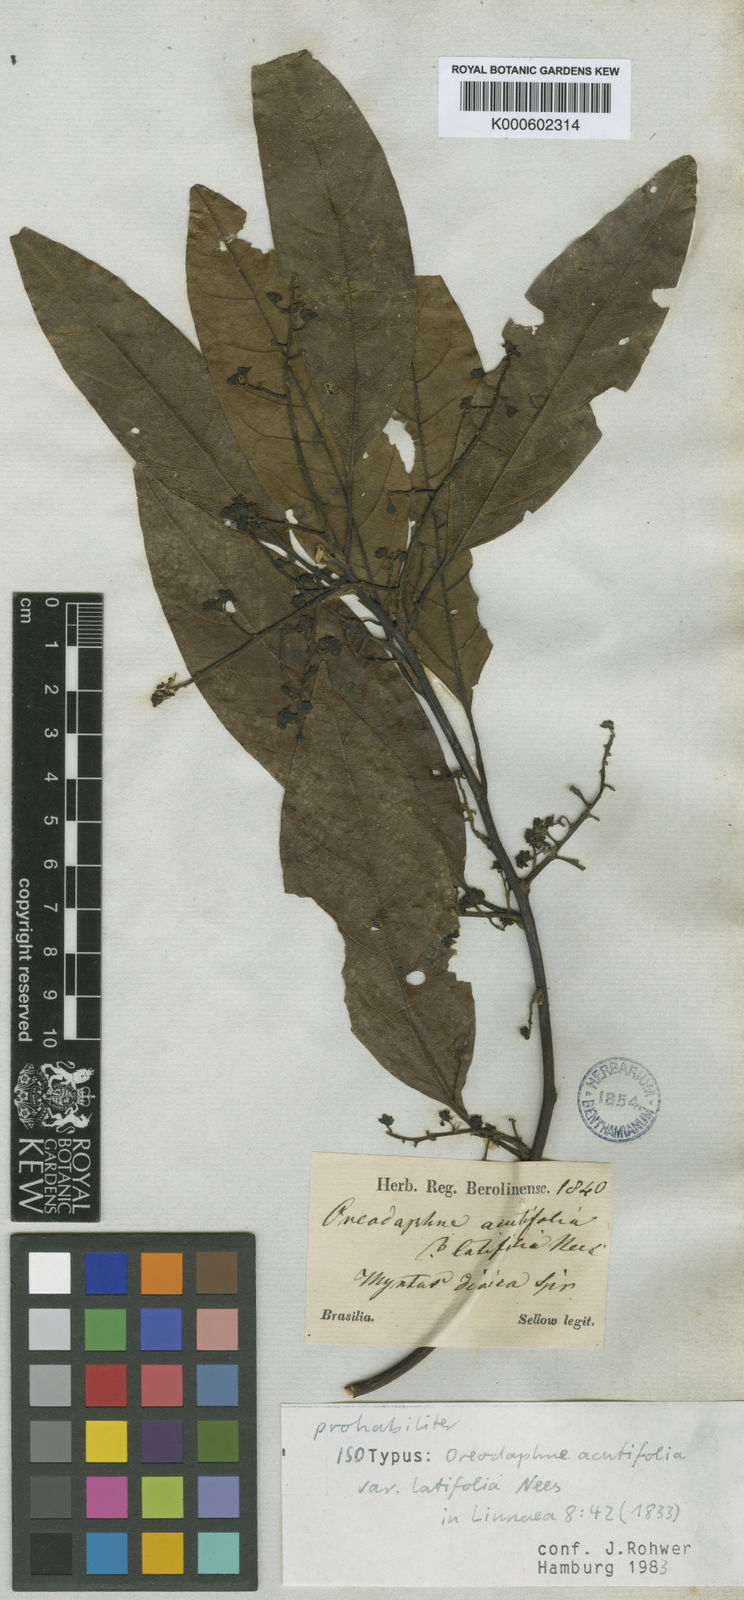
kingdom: Plantae
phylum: Tracheophyta
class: Magnoliopsida
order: Laurales
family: Lauraceae
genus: Ocotea
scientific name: Ocotea acutifolia
